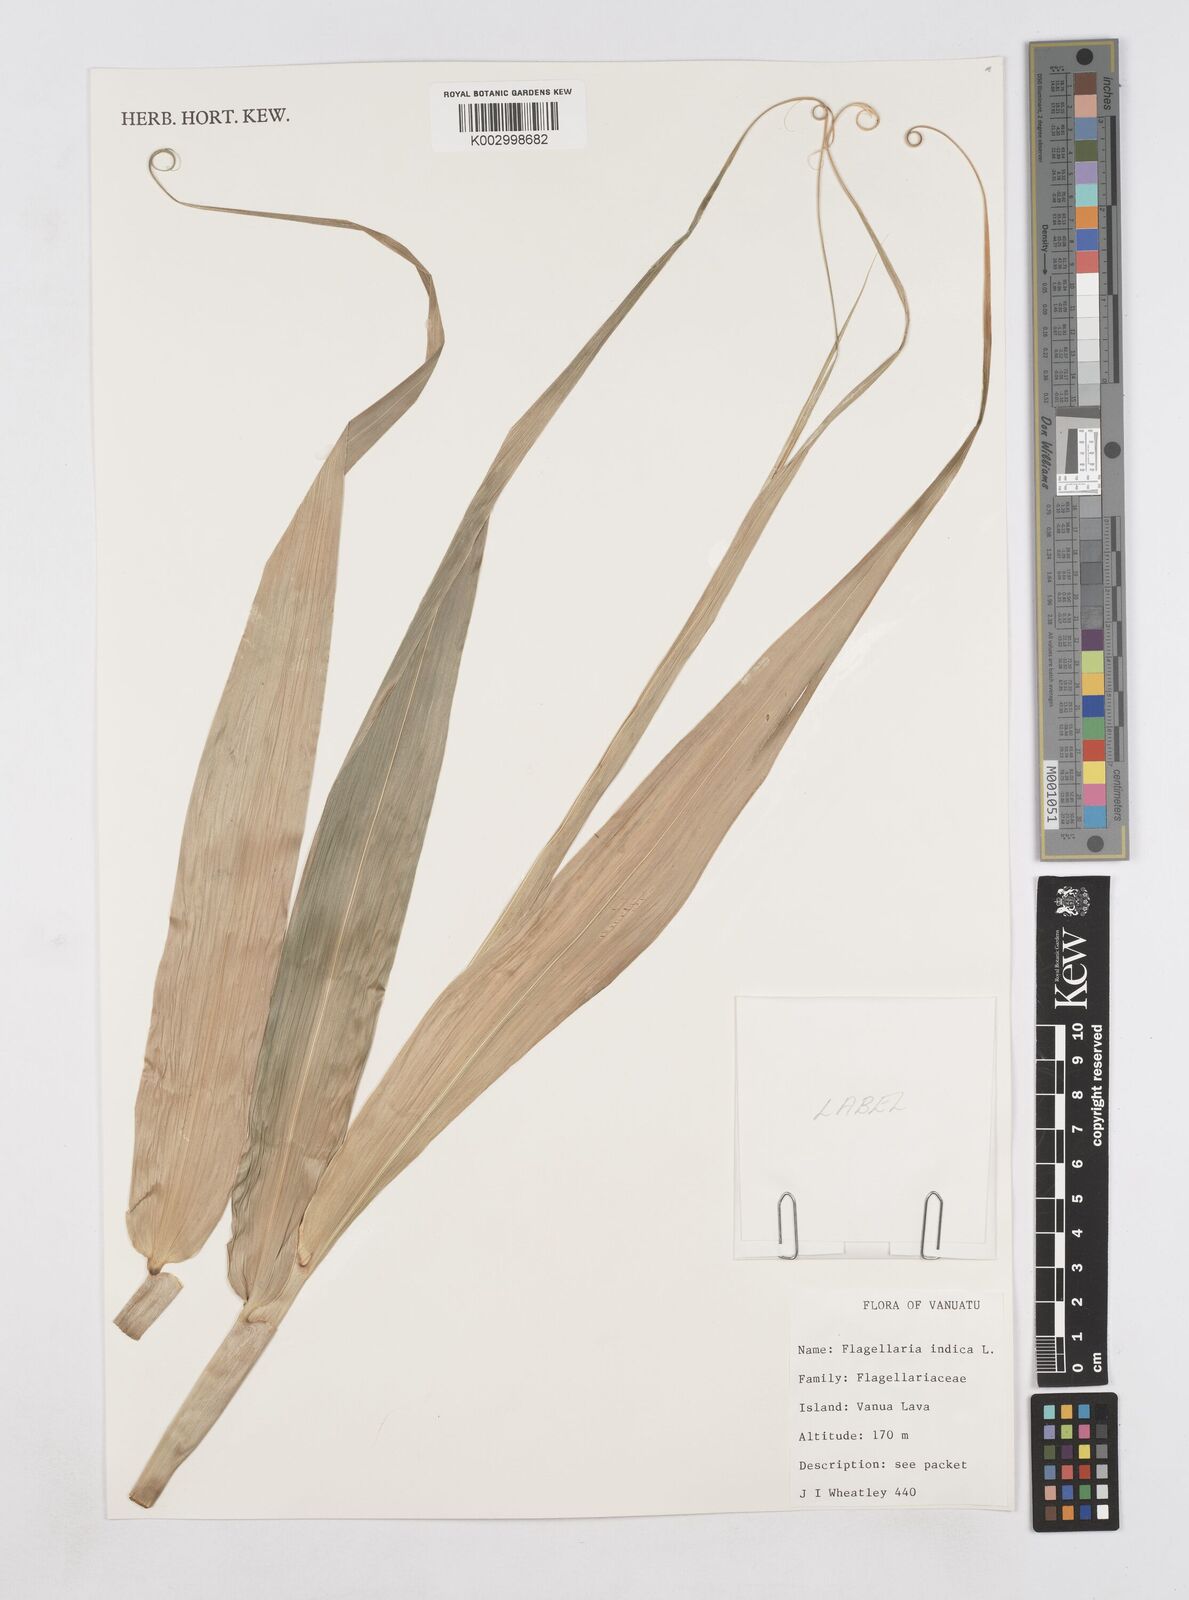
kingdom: Plantae
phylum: Tracheophyta
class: Liliopsida
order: Poales
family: Flagellariaceae
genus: Flagellaria
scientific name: Flagellaria indica
